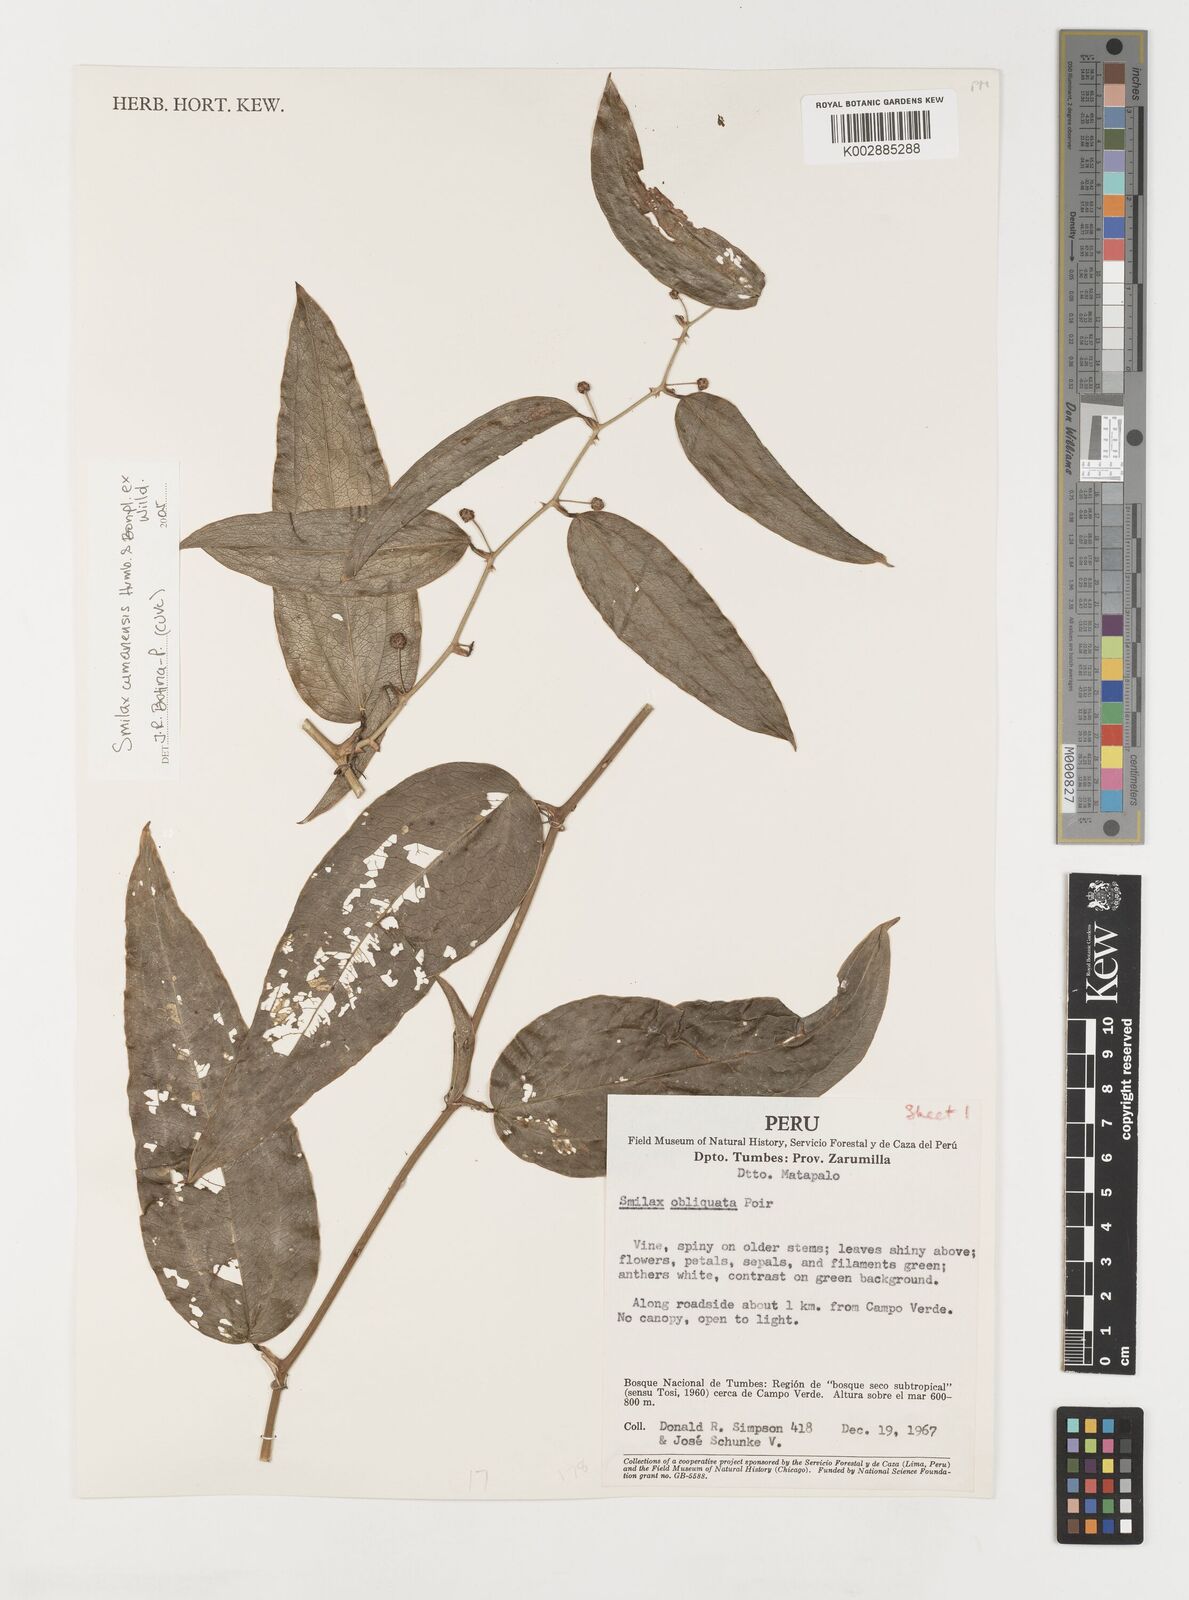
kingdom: Plantae
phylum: Tracheophyta
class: Liliopsida
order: Liliales
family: Smilacaceae
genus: Smilax
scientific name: Smilax oblongata
